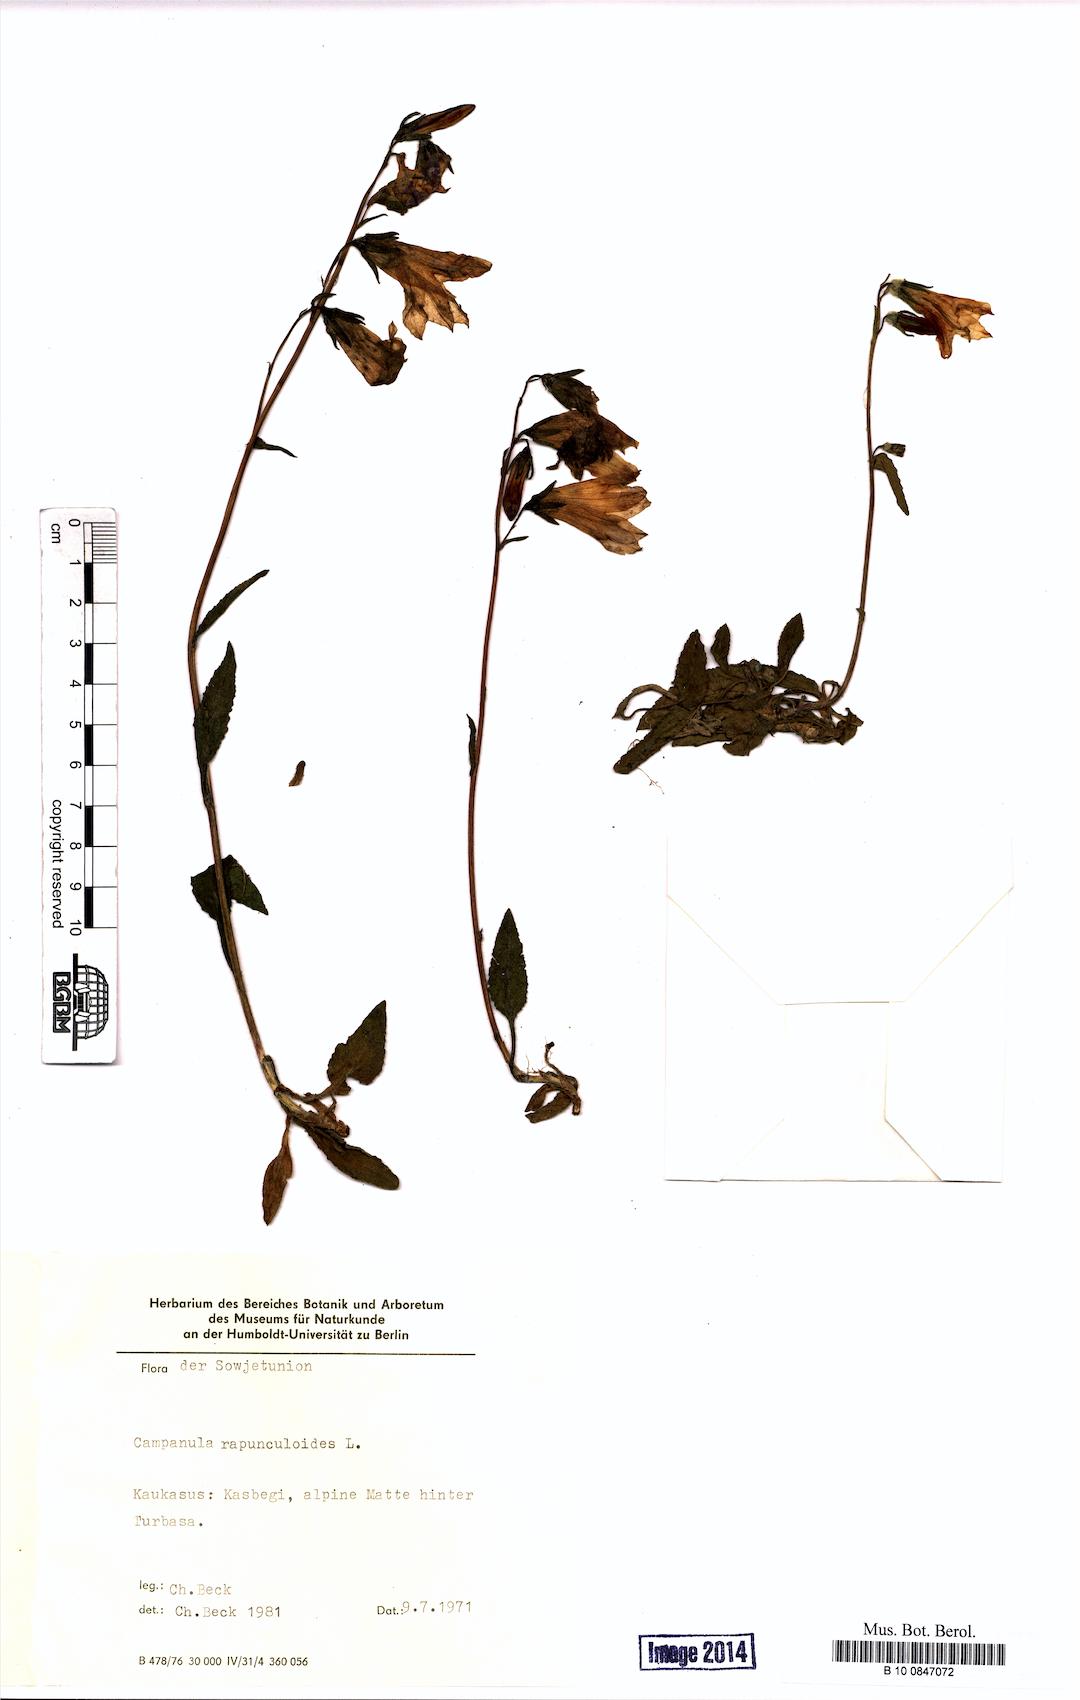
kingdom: Plantae
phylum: Tracheophyta
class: Magnoliopsida
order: Asterales
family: Campanulaceae
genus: Campanula
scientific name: Campanula rapunculoides
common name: Creeping bellflower
